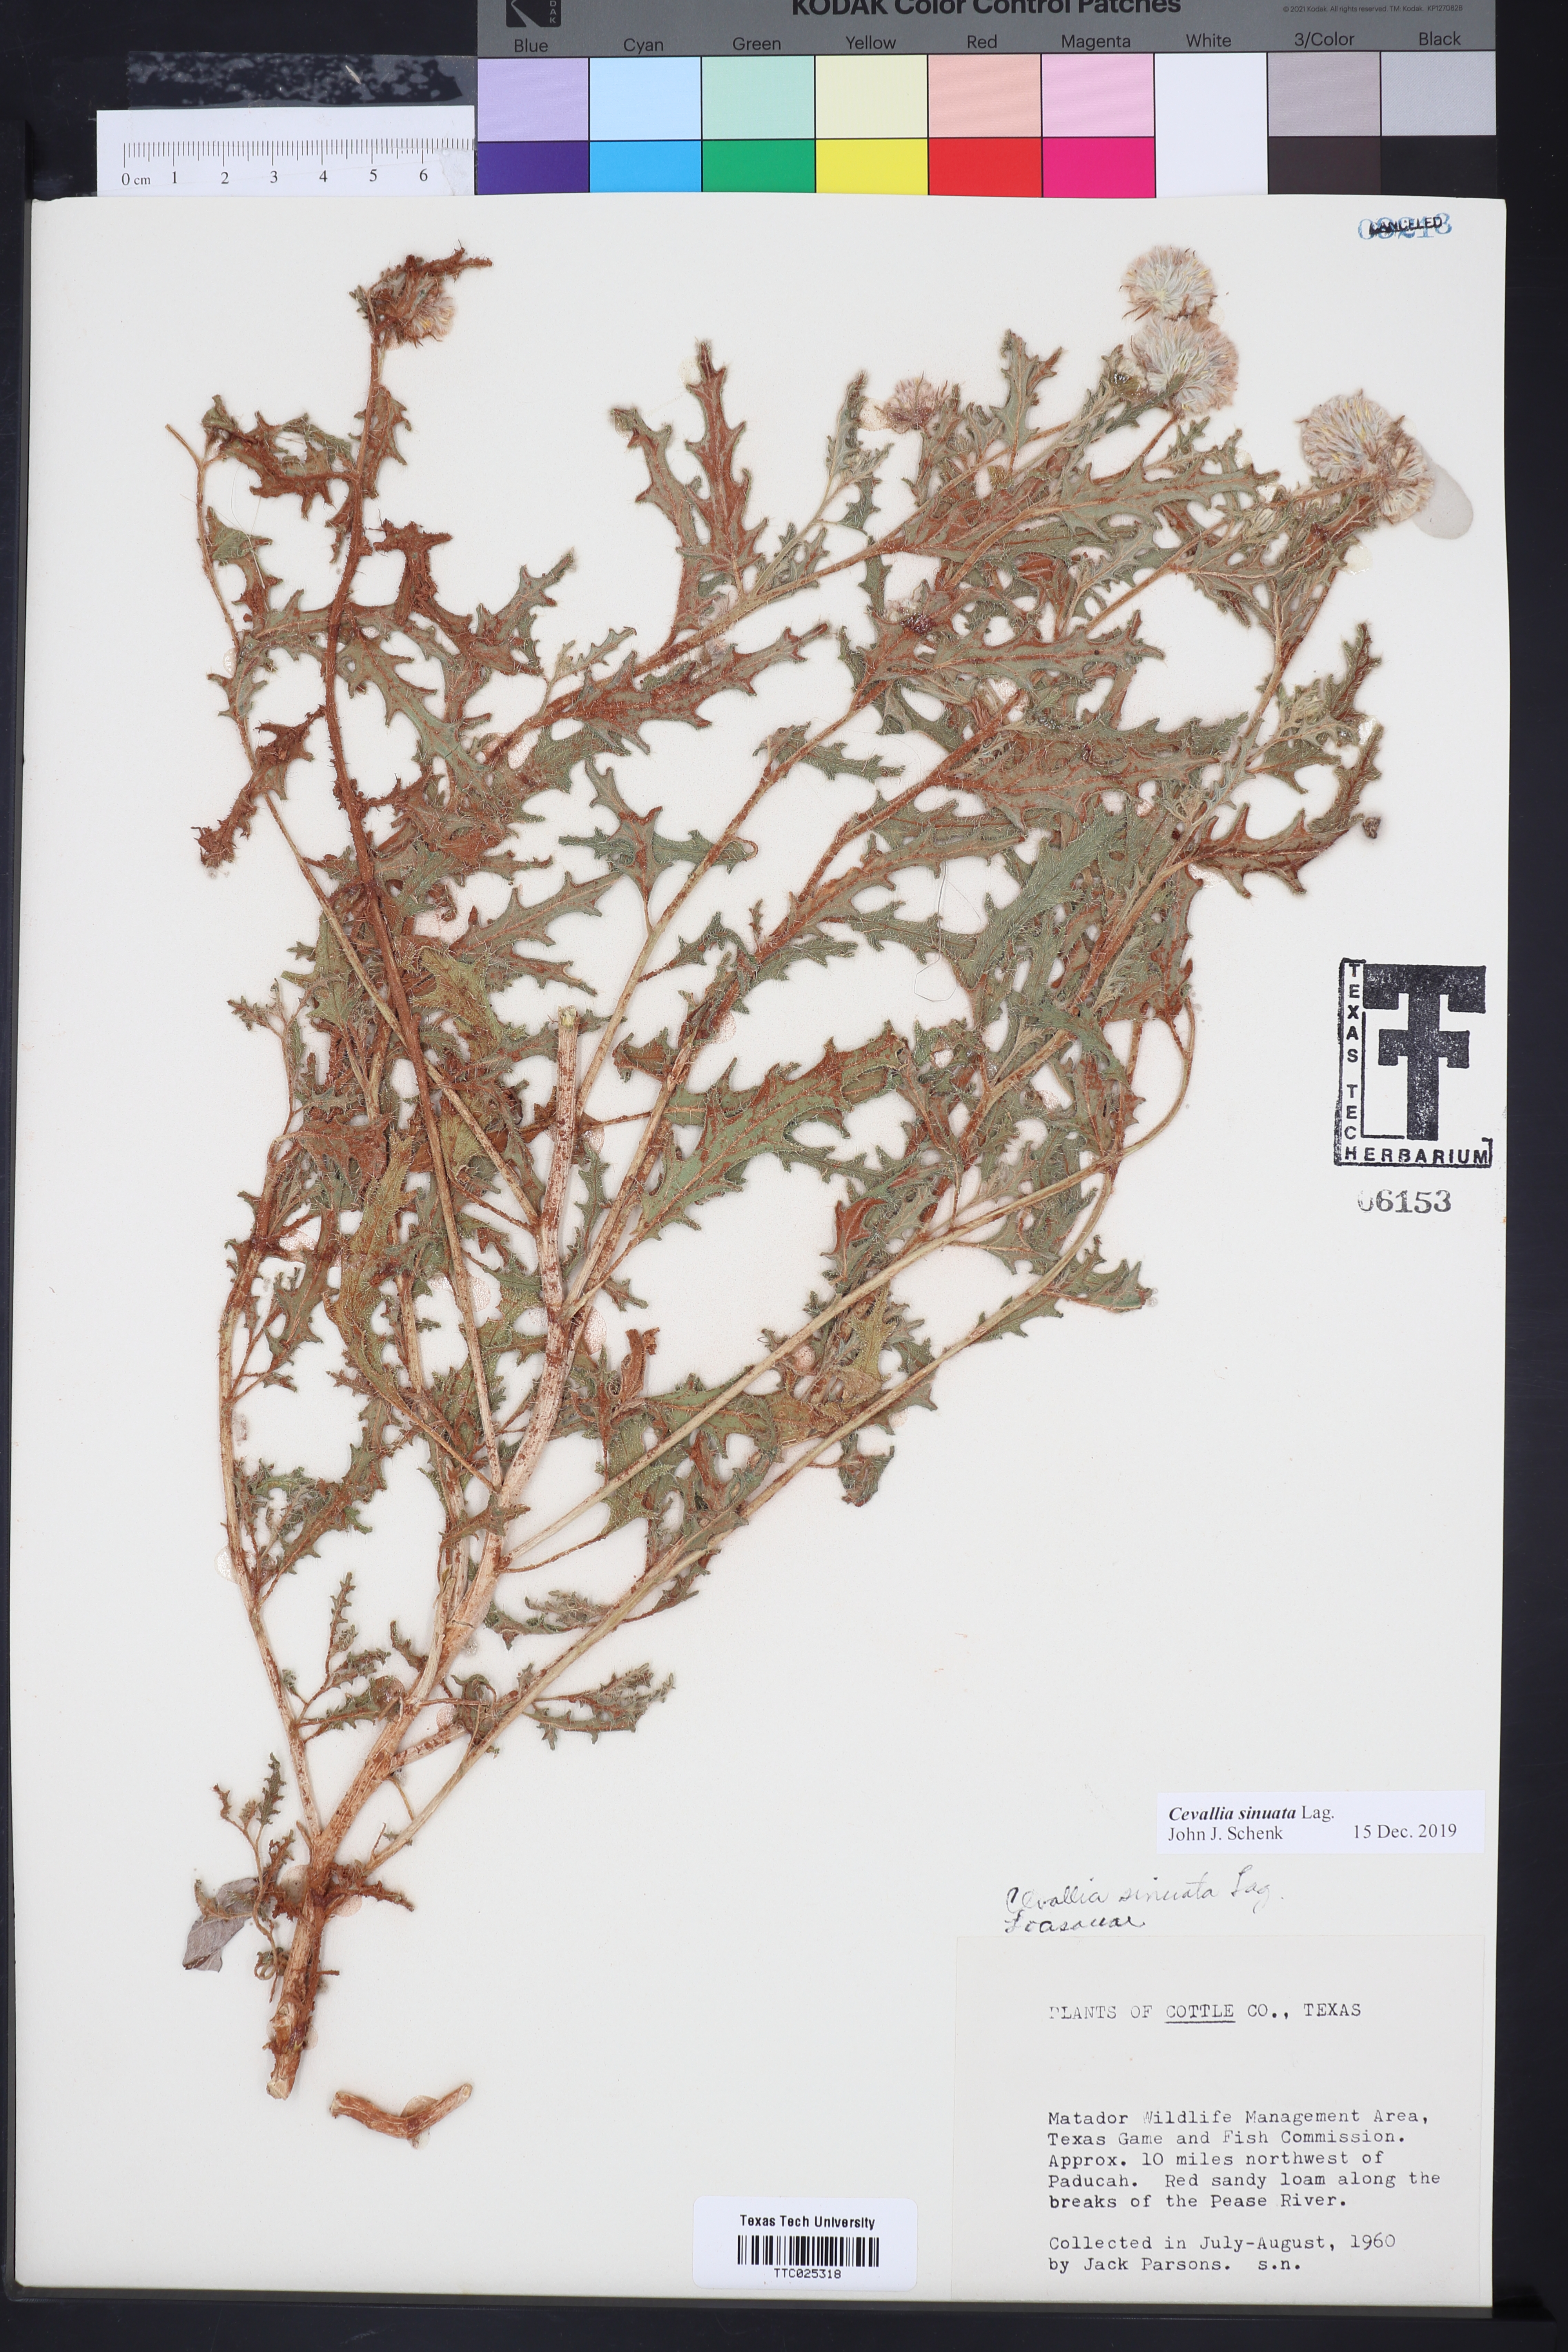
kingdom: Plantae
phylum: Tracheophyta
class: Magnoliopsida
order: Cornales
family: Loasaceae
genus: Cevallia
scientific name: Cevallia sinuata
